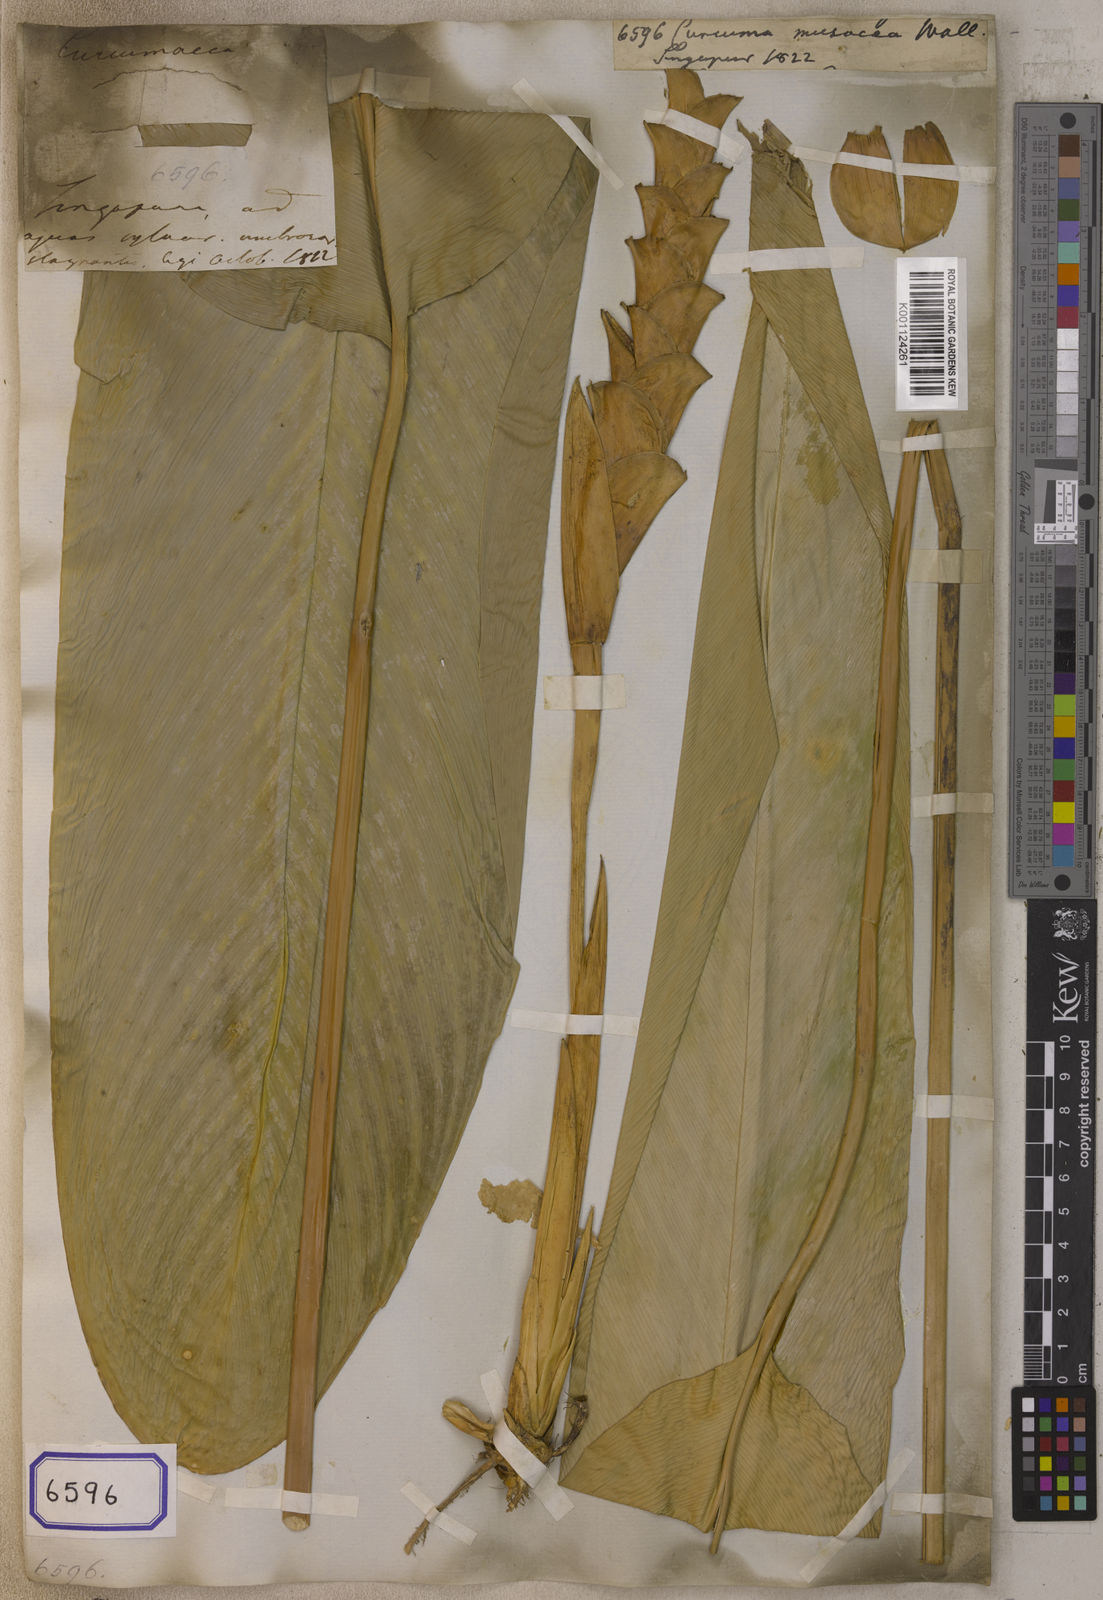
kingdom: Plantae
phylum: Tracheophyta
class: Liliopsida
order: Zingiberales
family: Marantaceae
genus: Stachyphrynium
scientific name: Stachyphrynium latifolium
